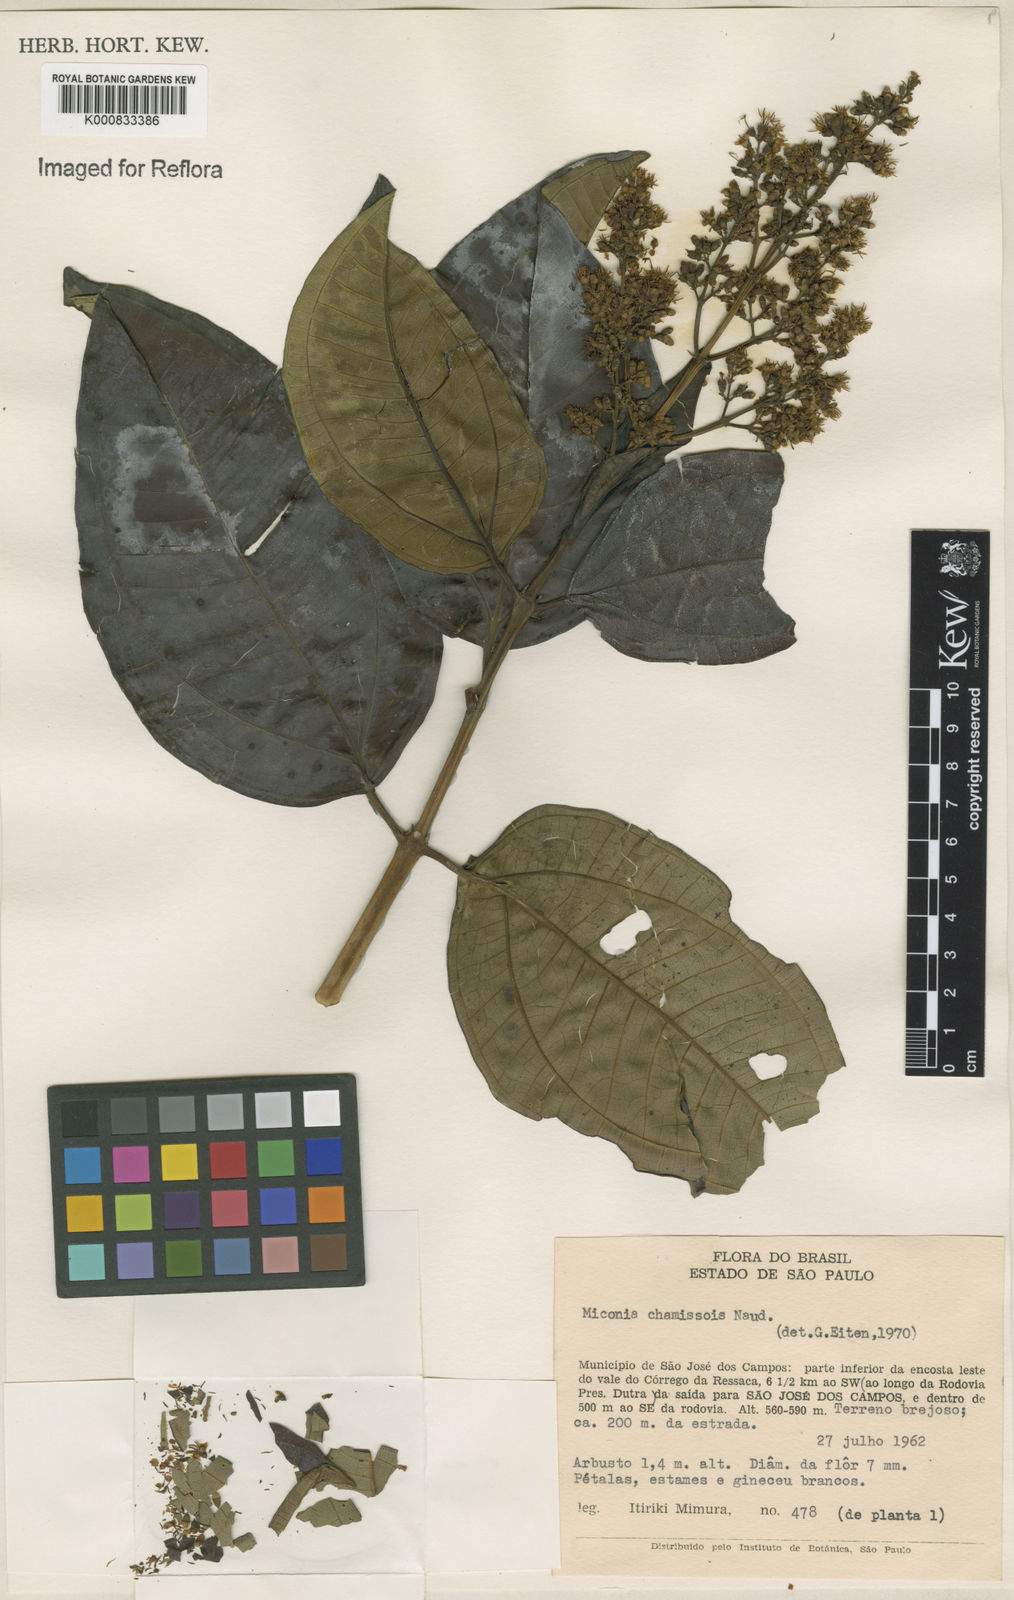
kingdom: Plantae
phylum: Tracheophyta
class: Magnoliopsida
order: Myrtales
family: Melastomataceae
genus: Miconia
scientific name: Miconia chamissois
